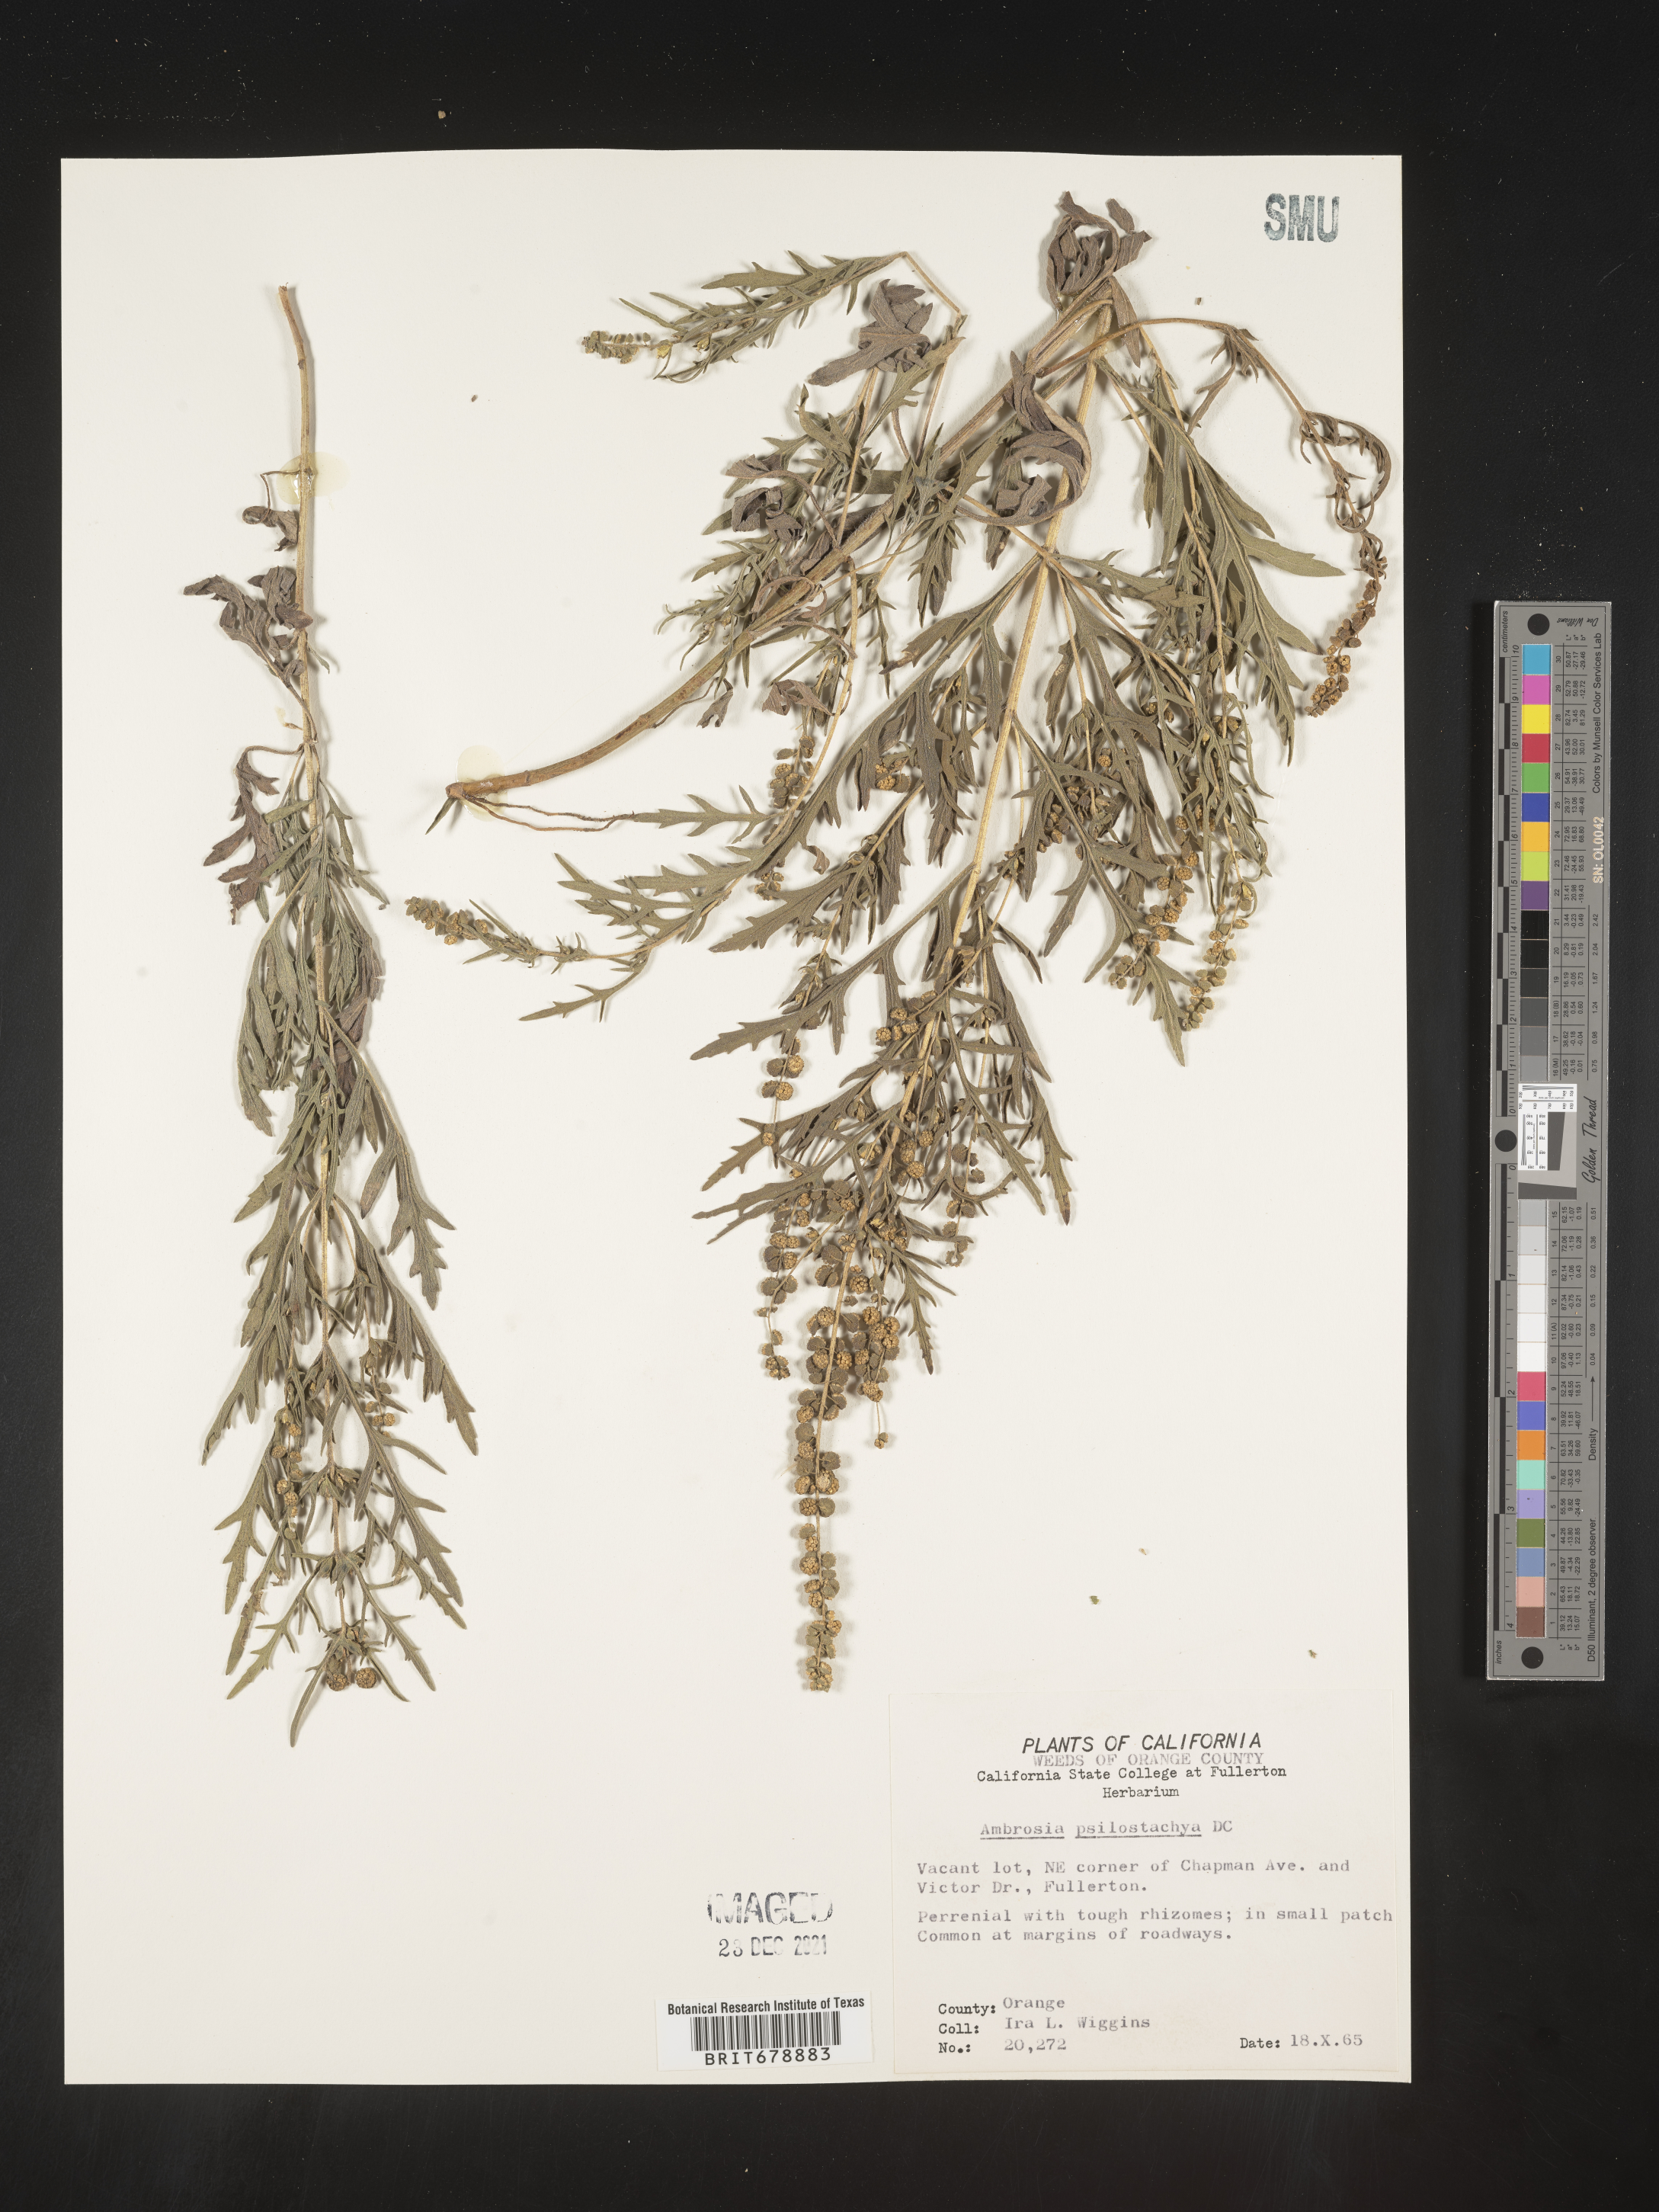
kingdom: Plantae
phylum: Tracheophyta
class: Magnoliopsida
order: Asterales
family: Asteraceae
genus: Ambrosia
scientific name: Ambrosia psilostachya
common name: Perennial ragweed
